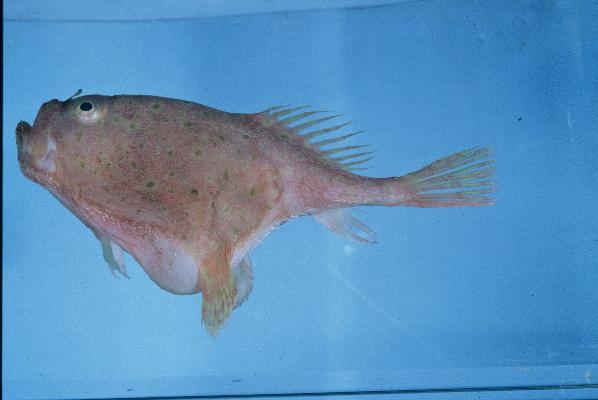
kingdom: Animalia
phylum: Chordata
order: Lophiiformes
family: Chaunacidae
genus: Chaunax
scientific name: Chaunax africanus
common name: African coffinfish
